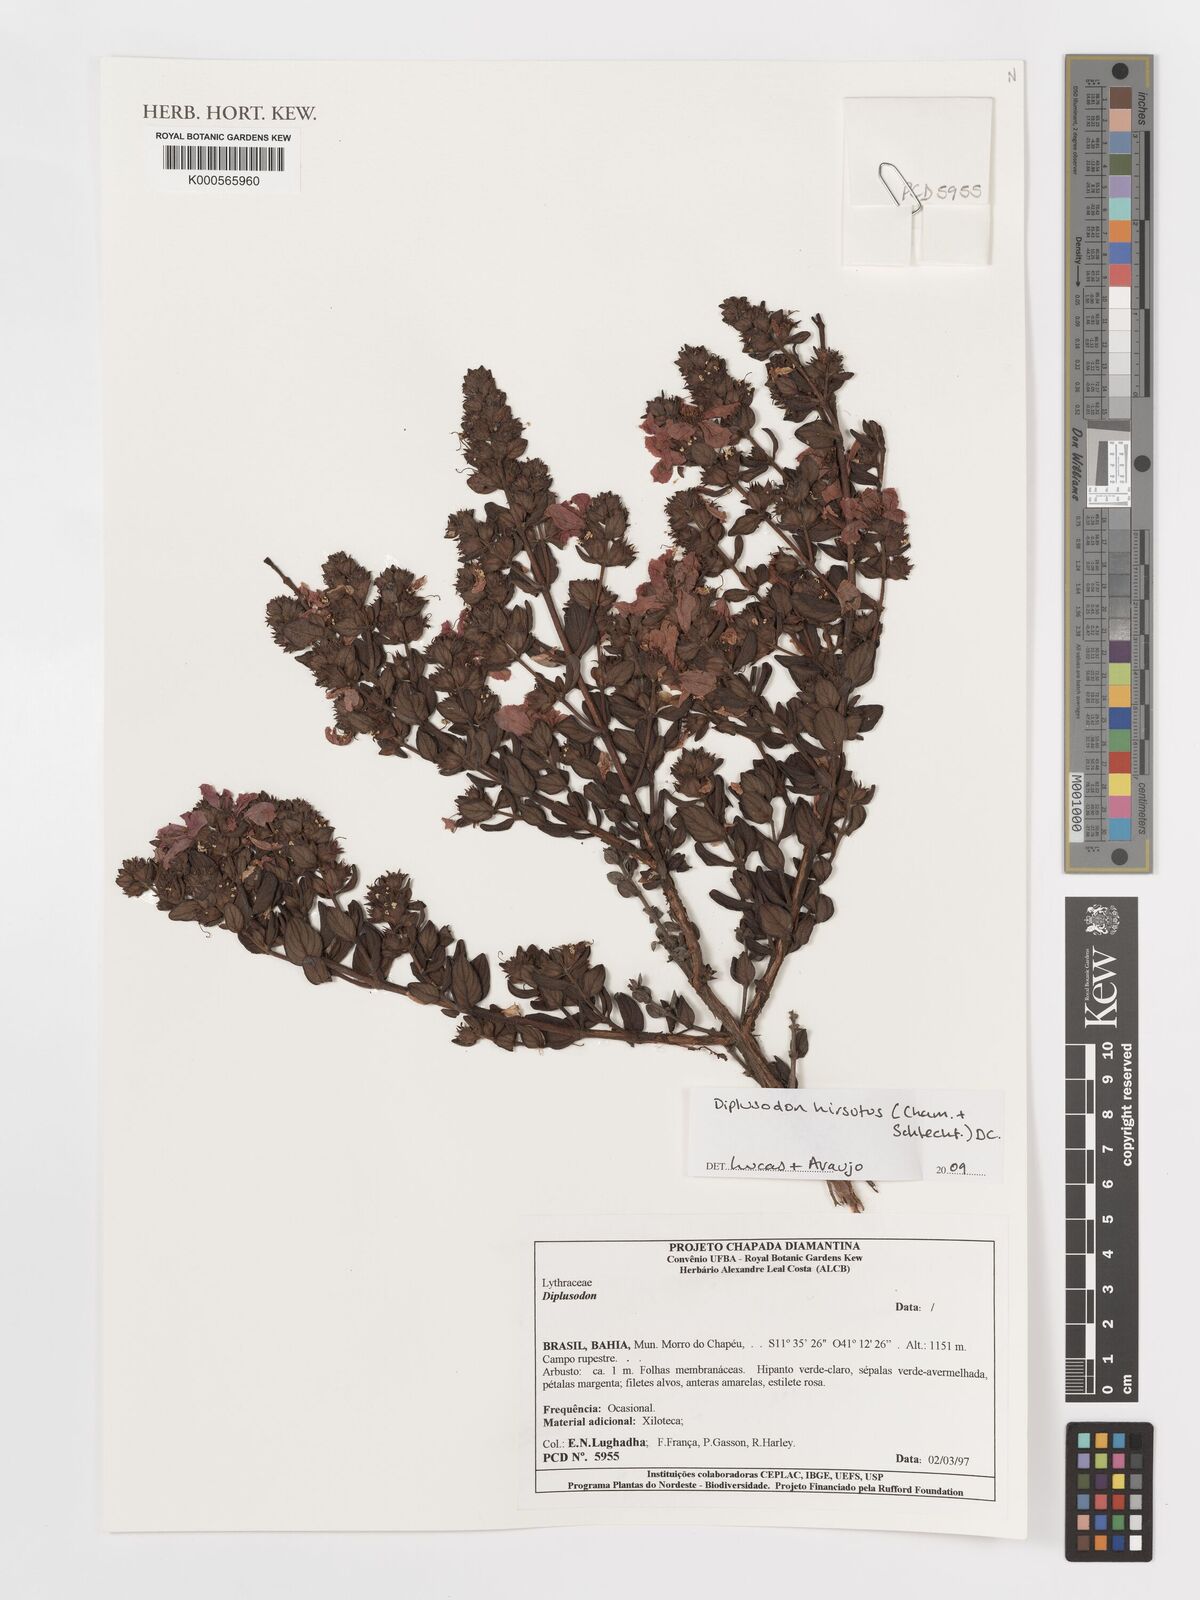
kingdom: Plantae
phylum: Tracheophyta
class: Magnoliopsida
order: Myrtales
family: Lythraceae
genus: Diplusodon
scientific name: Diplusodon hirsutus
